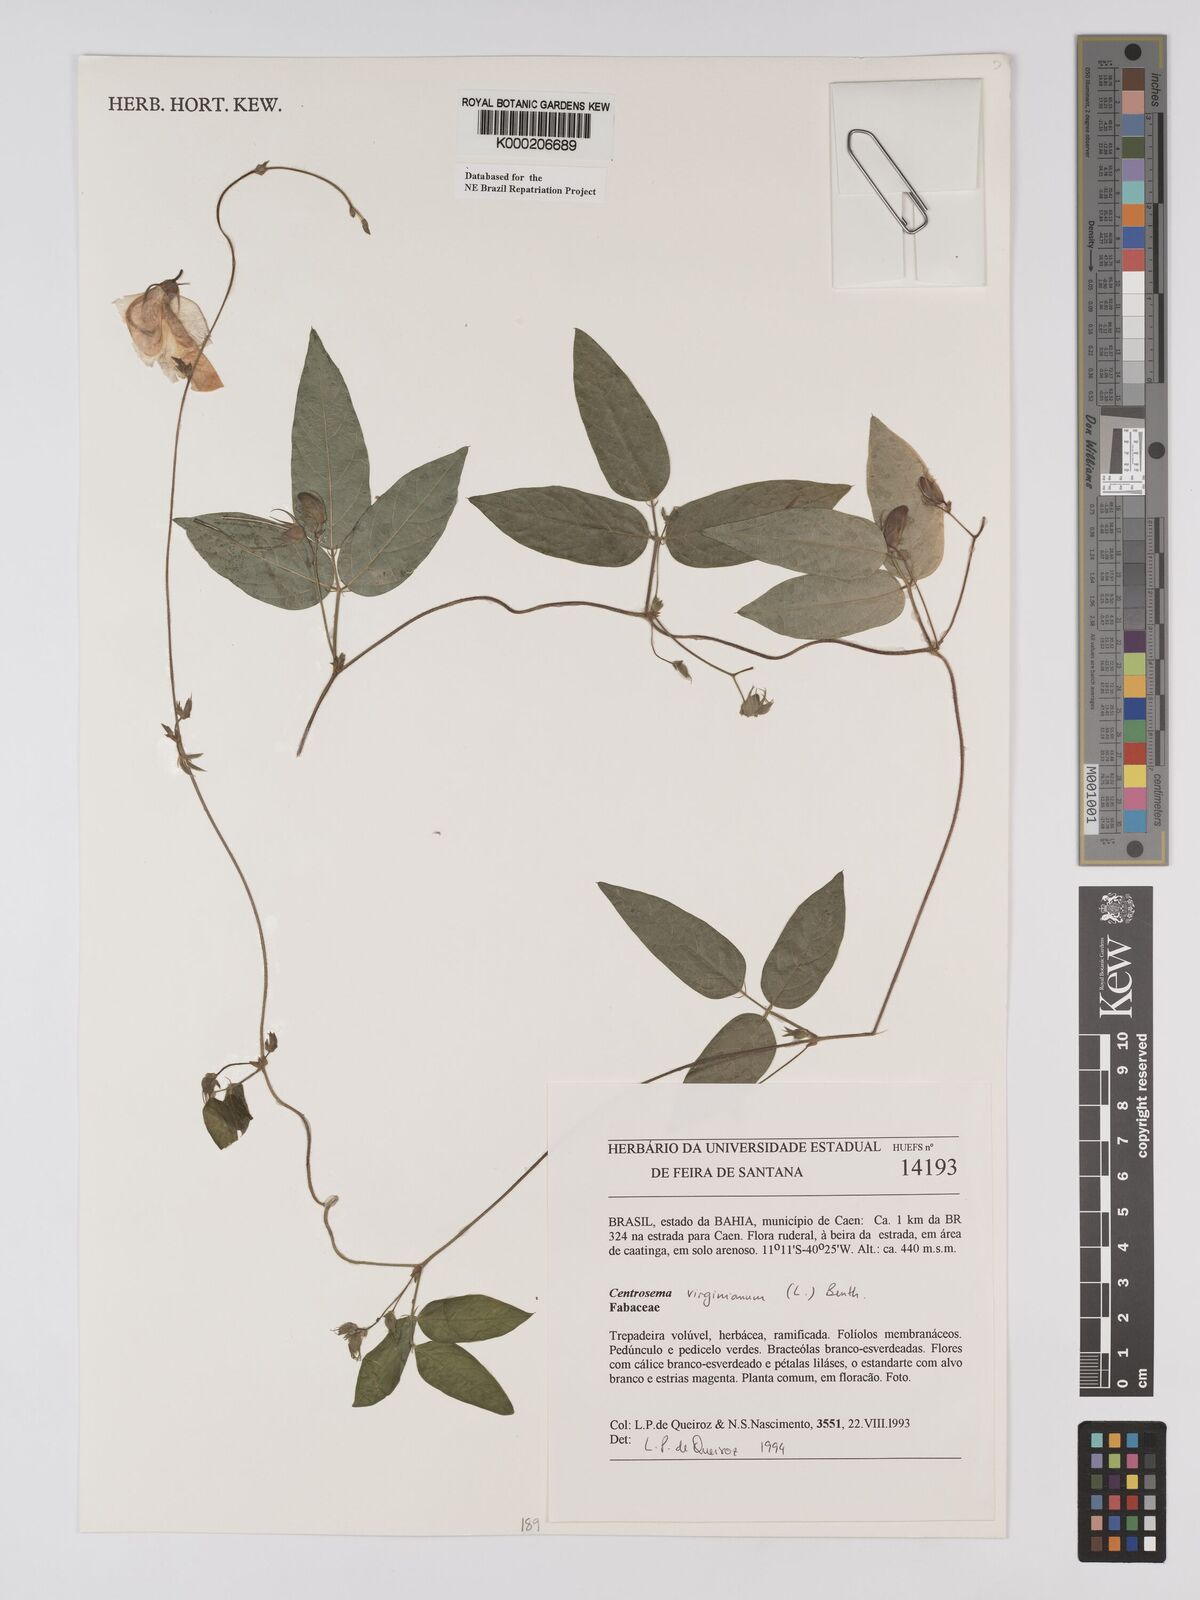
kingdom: Plantae
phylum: Tracheophyta
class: Magnoliopsida
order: Fabales
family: Fabaceae
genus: Centrosema
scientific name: Centrosema virginianum
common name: Butterfly-pea
